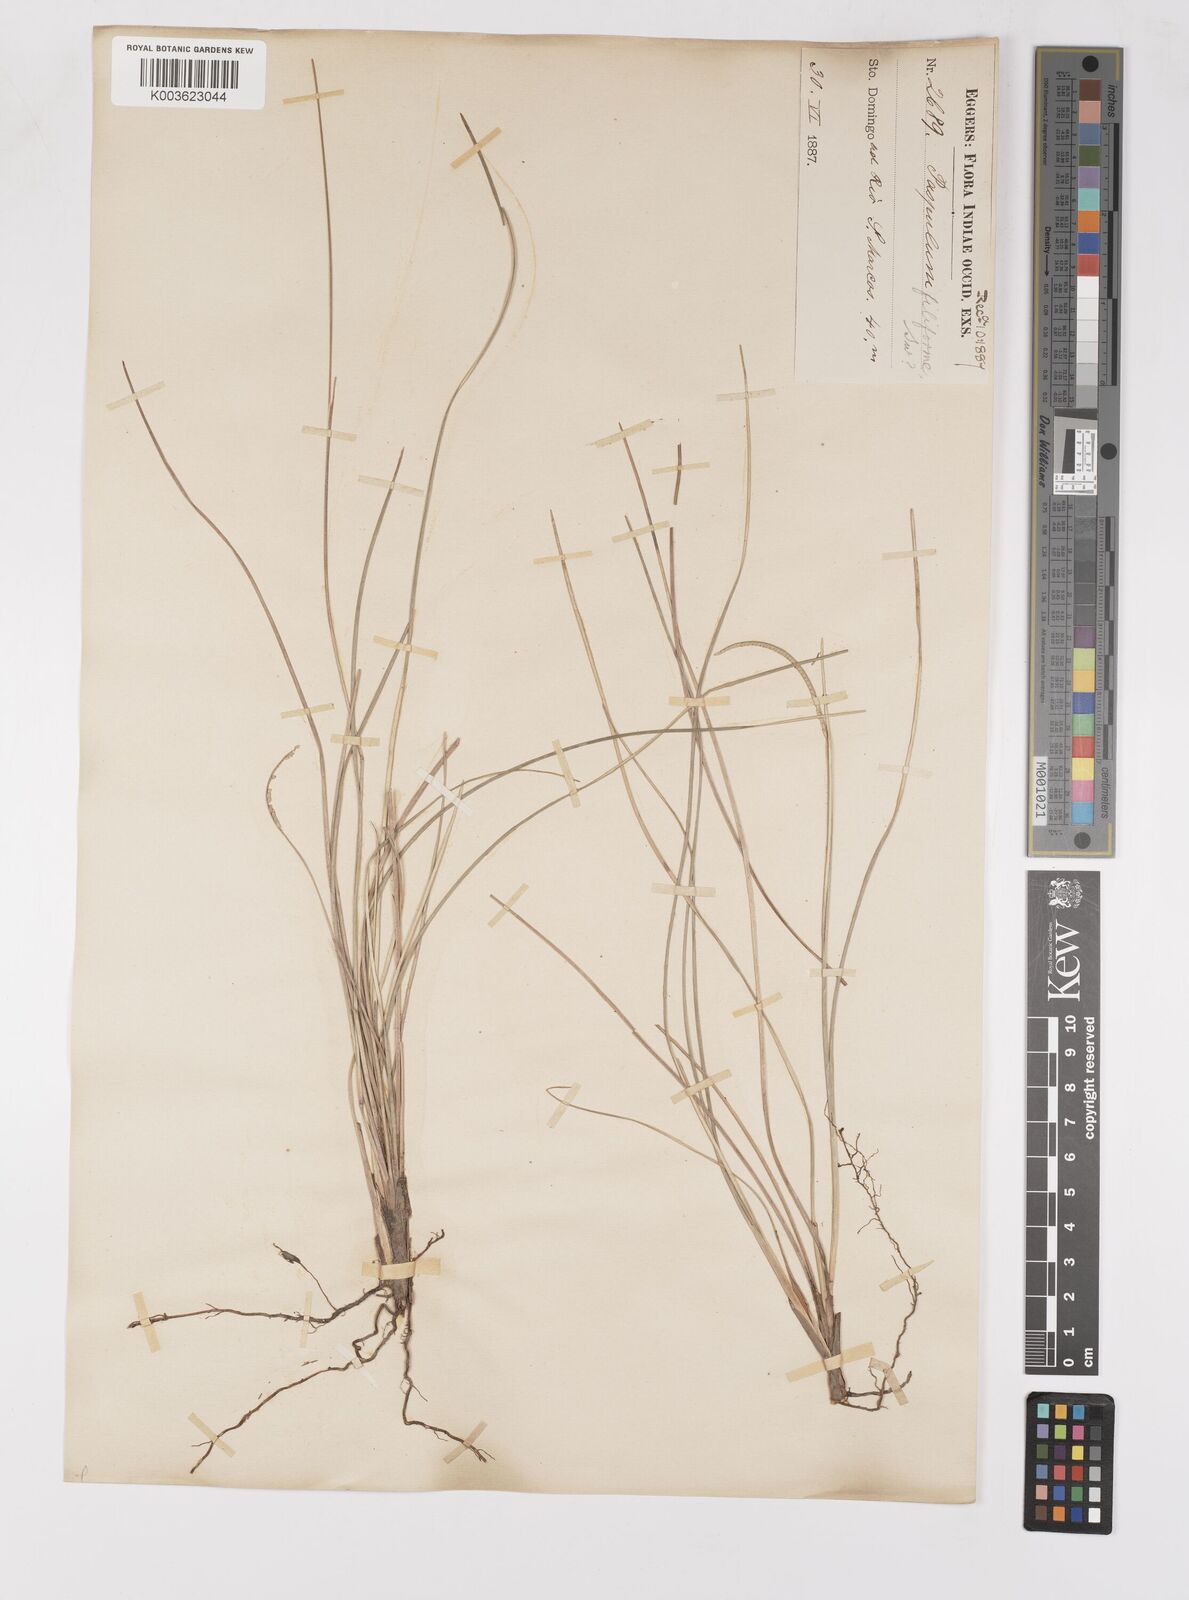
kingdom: Plantae
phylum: Tracheophyta
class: Liliopsida
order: Poales
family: Poaceae
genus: Paspalum
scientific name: Paspalum filiforme
